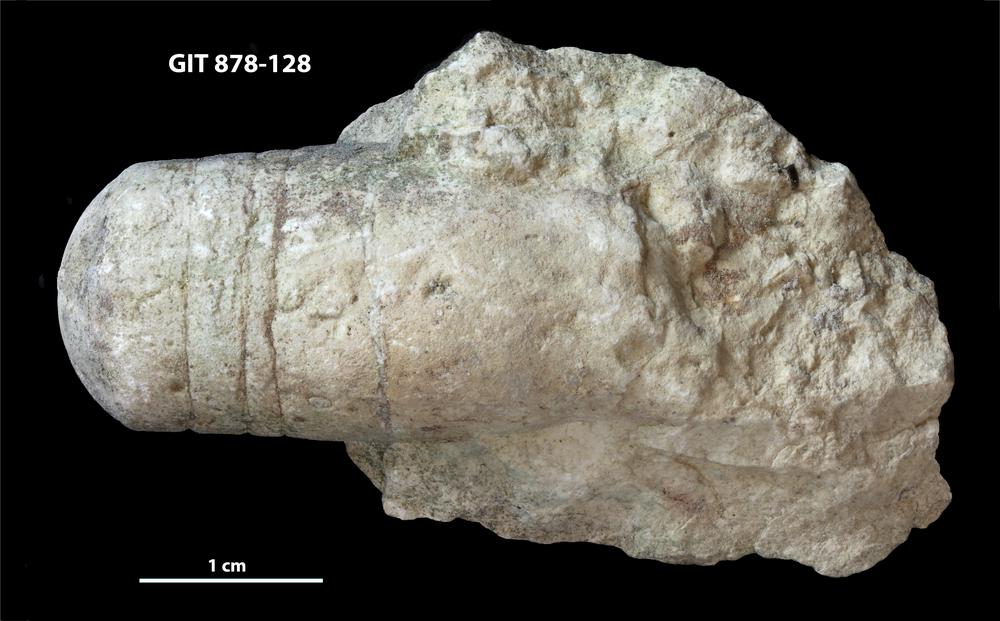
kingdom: Animalia
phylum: Mollusca
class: Cephalopoda
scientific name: Cephalopoda
